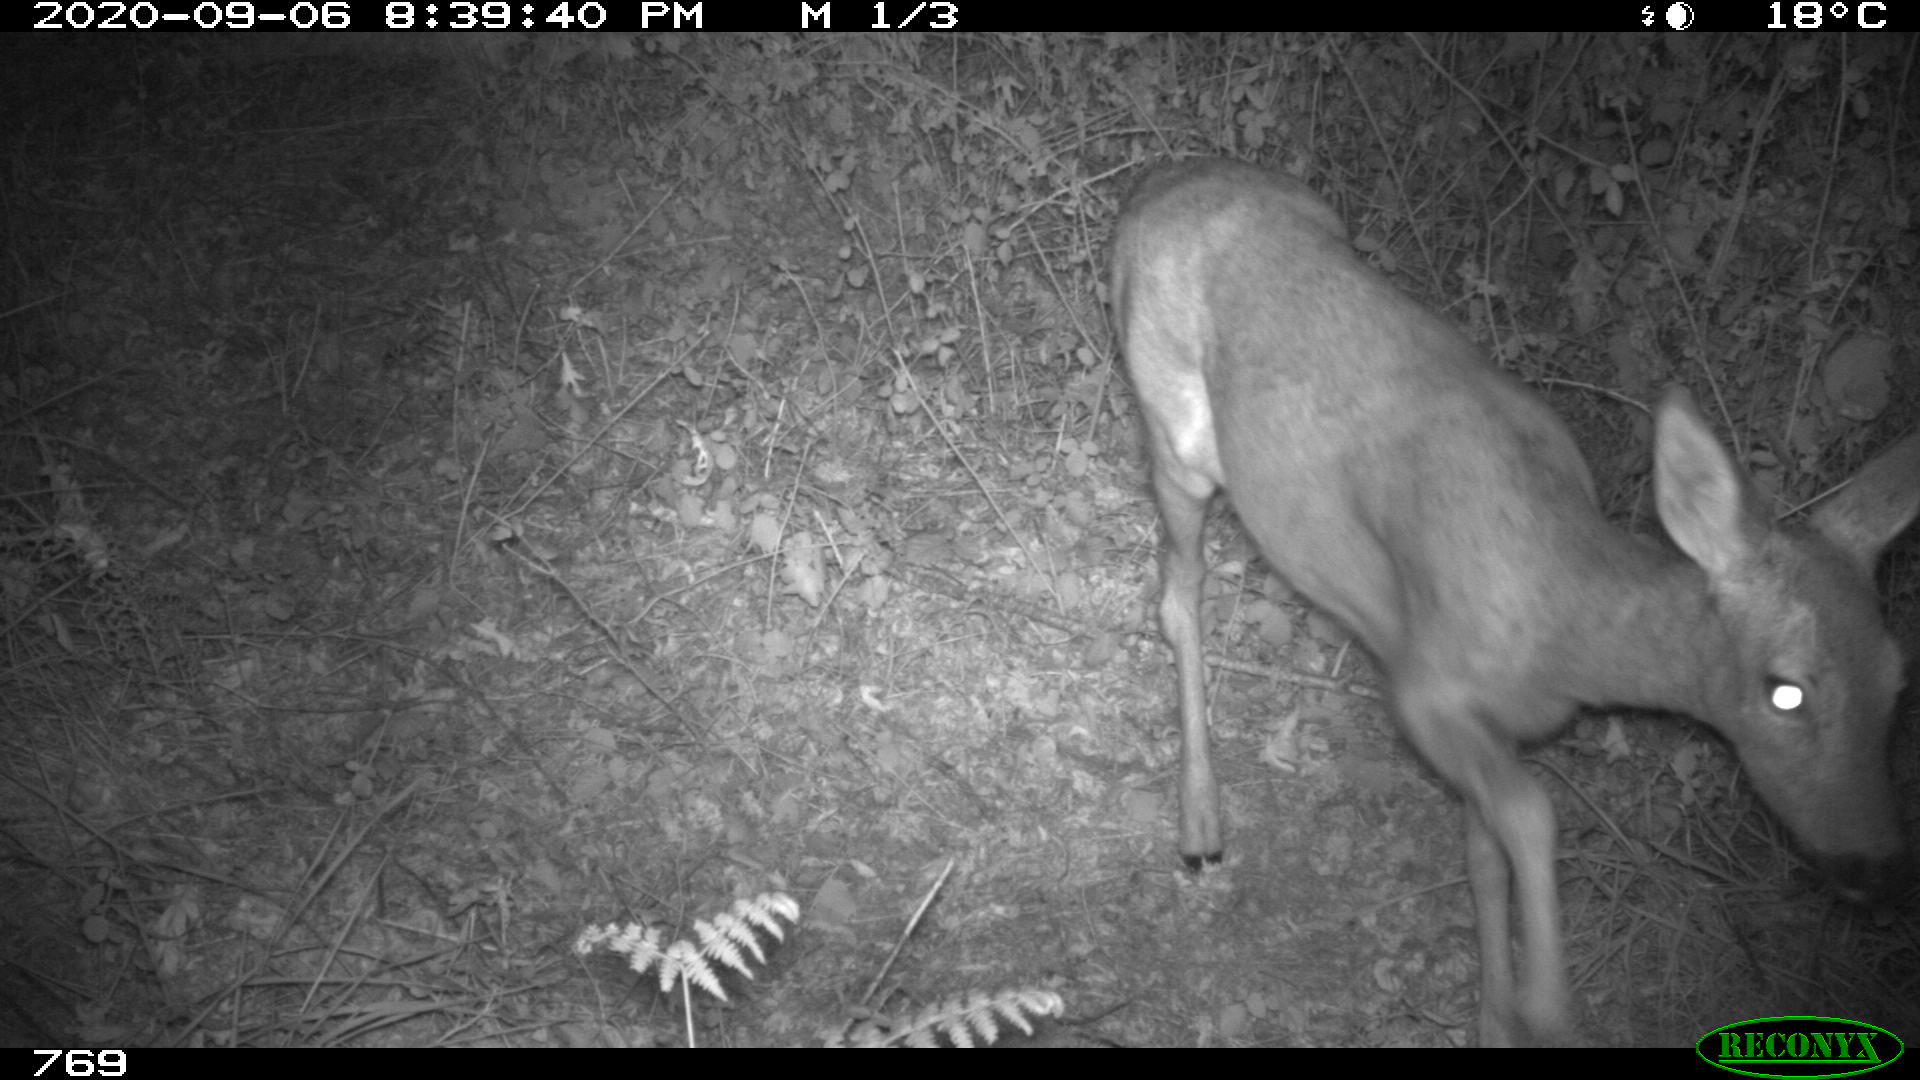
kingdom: Animalia
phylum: Chordata
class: Mammalia
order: Artiodactyla
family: Cervidae
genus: Capreolus
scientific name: Capreolus capreolus
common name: Western roe deer
